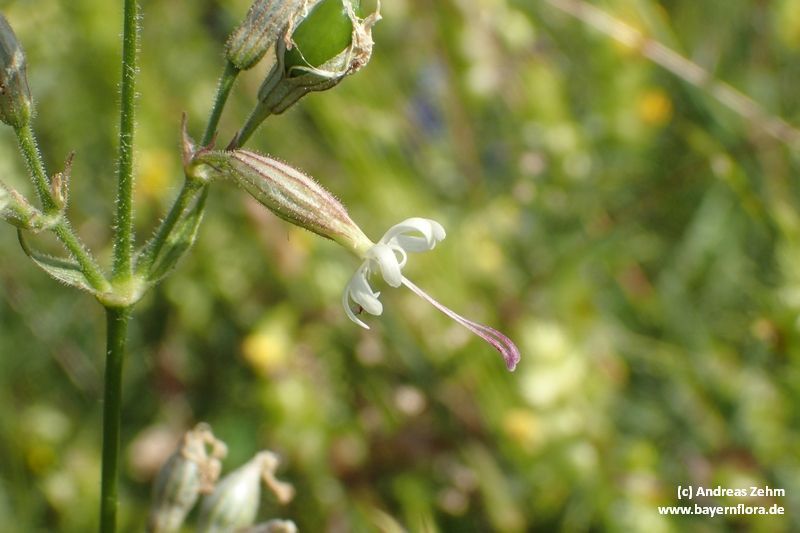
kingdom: Plantae
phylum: Tracheophyta
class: Magnoliopsida
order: Caryophyllales
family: Caryophyllaceae
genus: Silene
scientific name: Silene nutans
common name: Nottingham catchfly
